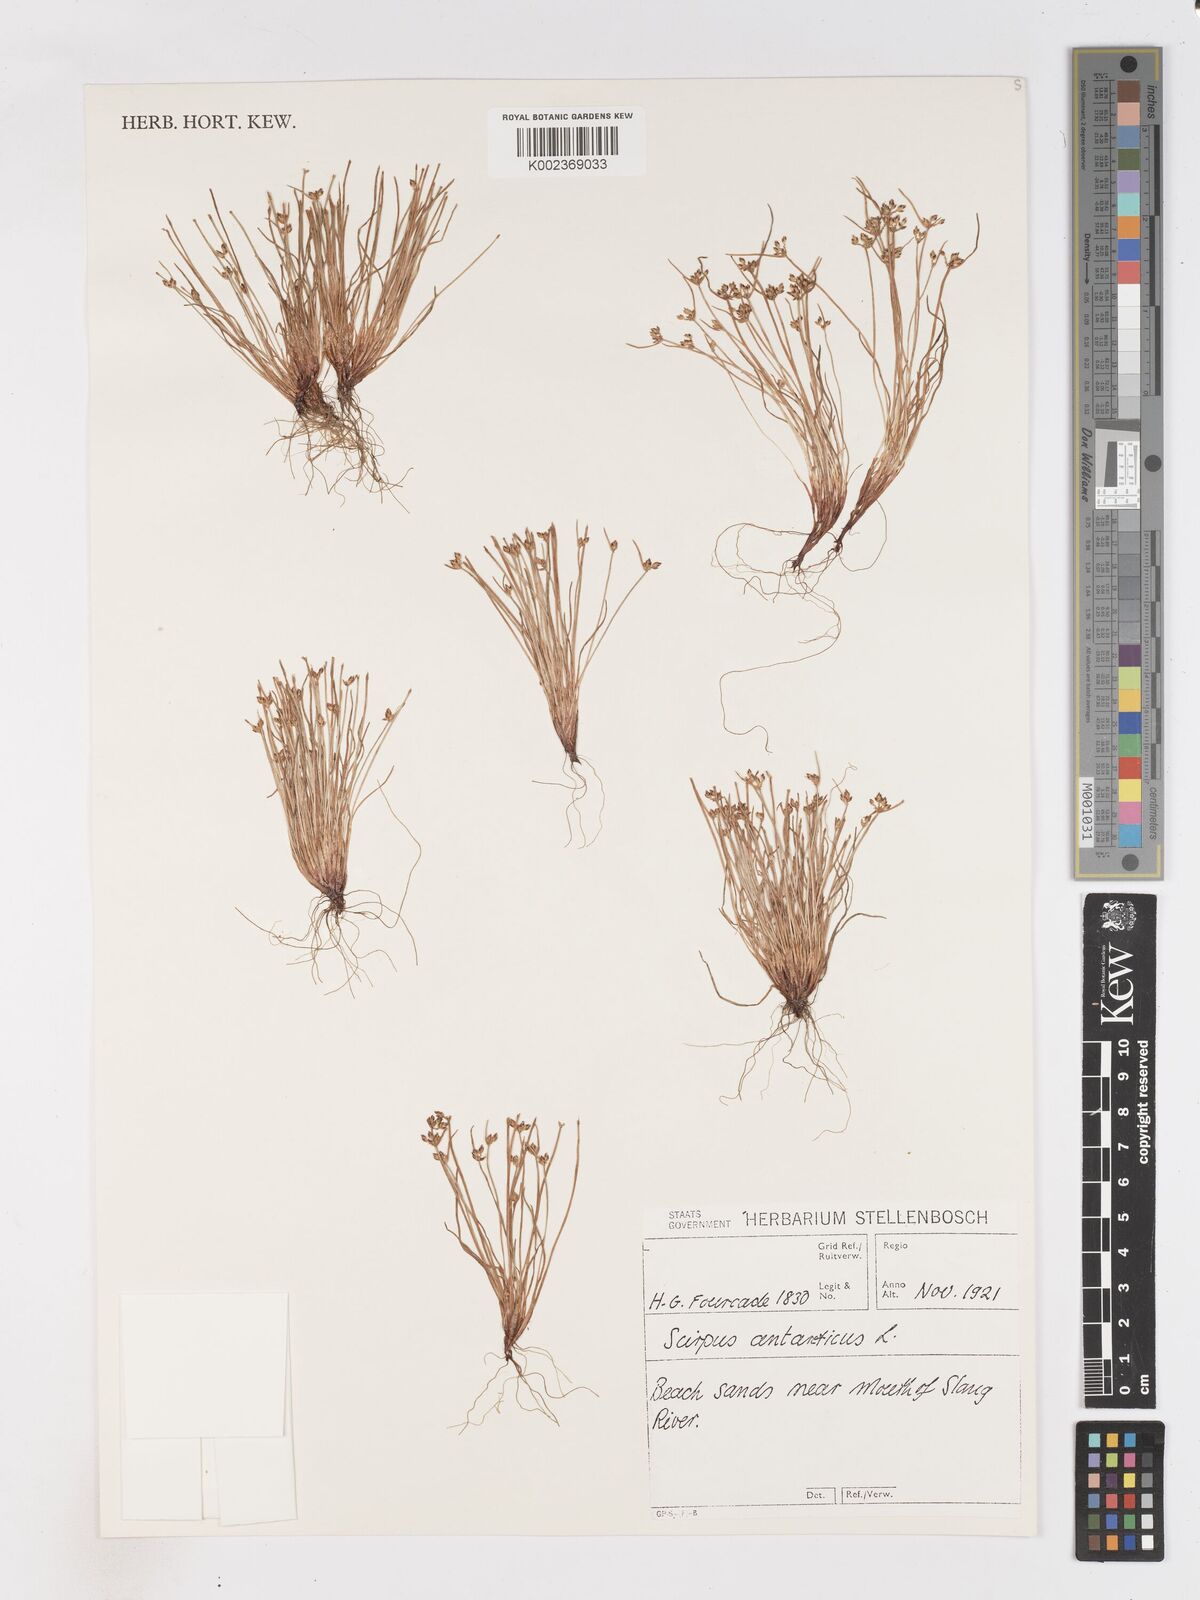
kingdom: Plantae
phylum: Tracheophyta
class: Liliopsida
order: Poales
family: Cyperaceae
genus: Isolepis
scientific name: Isolepis diabolica
